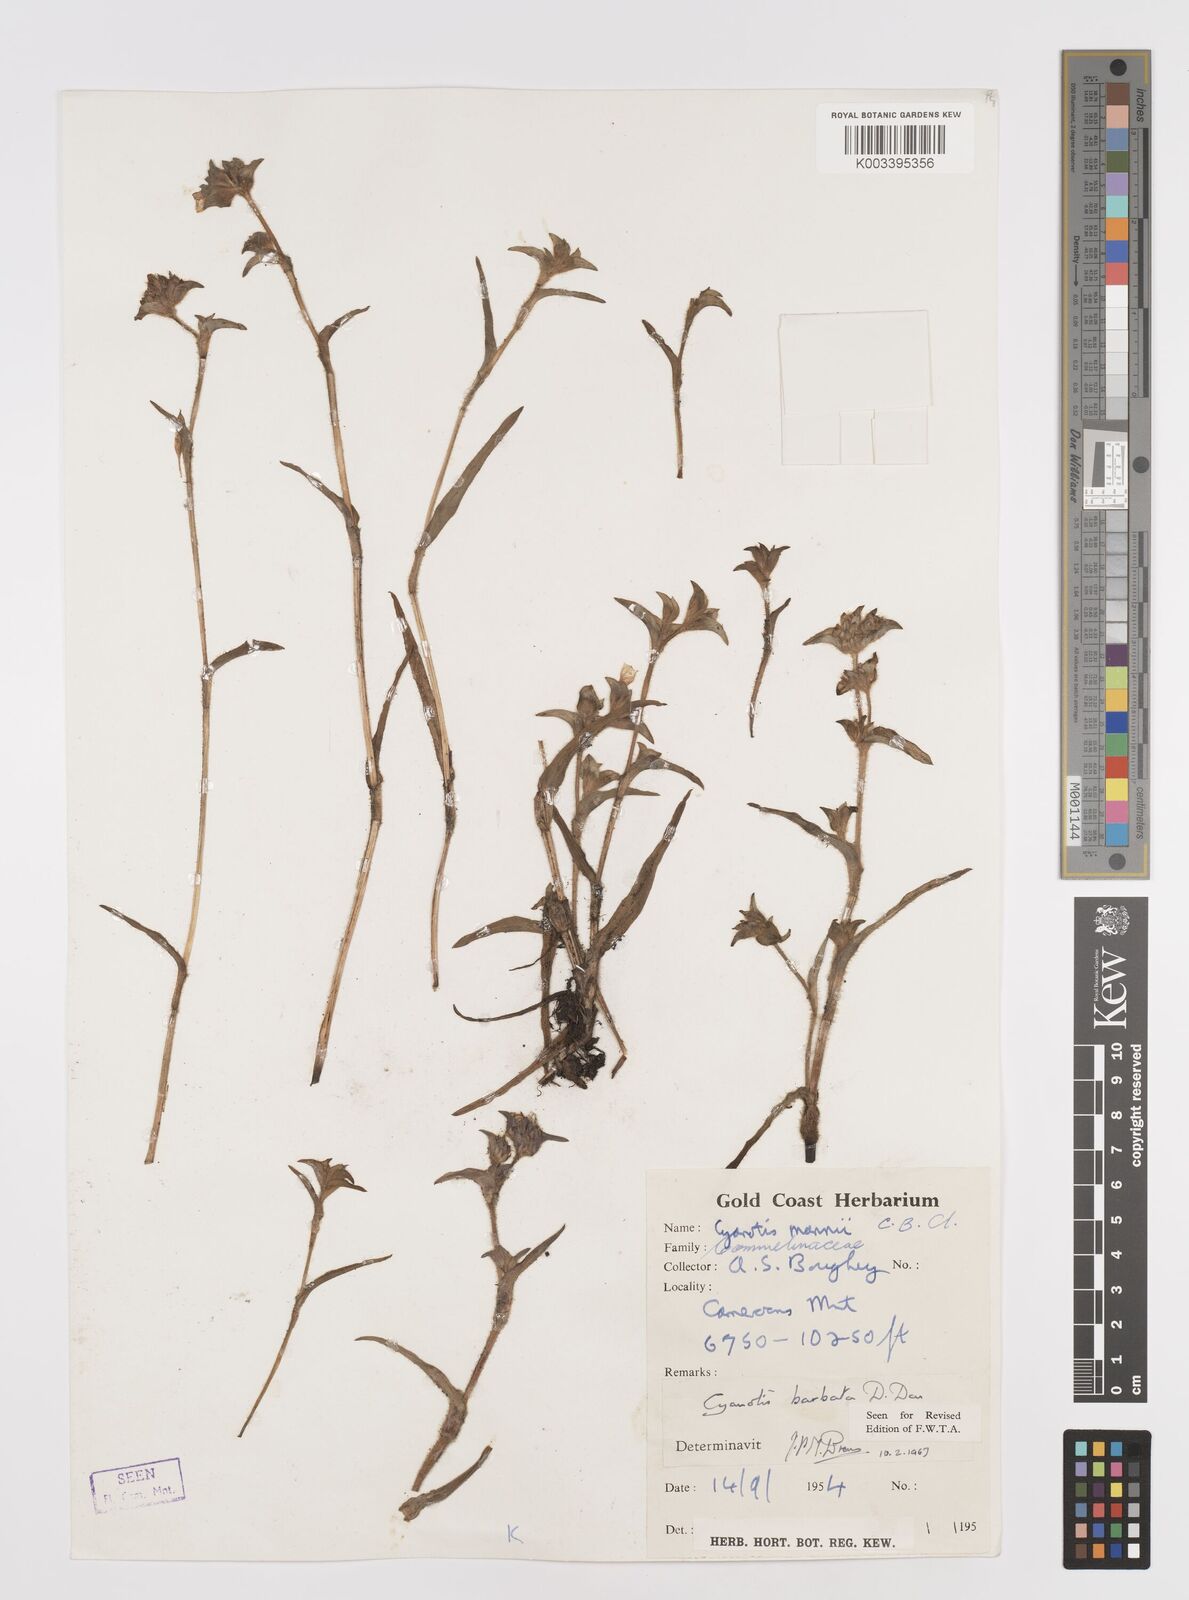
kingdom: Plantae
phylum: Tracheophyta
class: Liliopsida
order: Commelinales
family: Commelinaceae
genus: Cyanotis
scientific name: Cyanotis vaga
